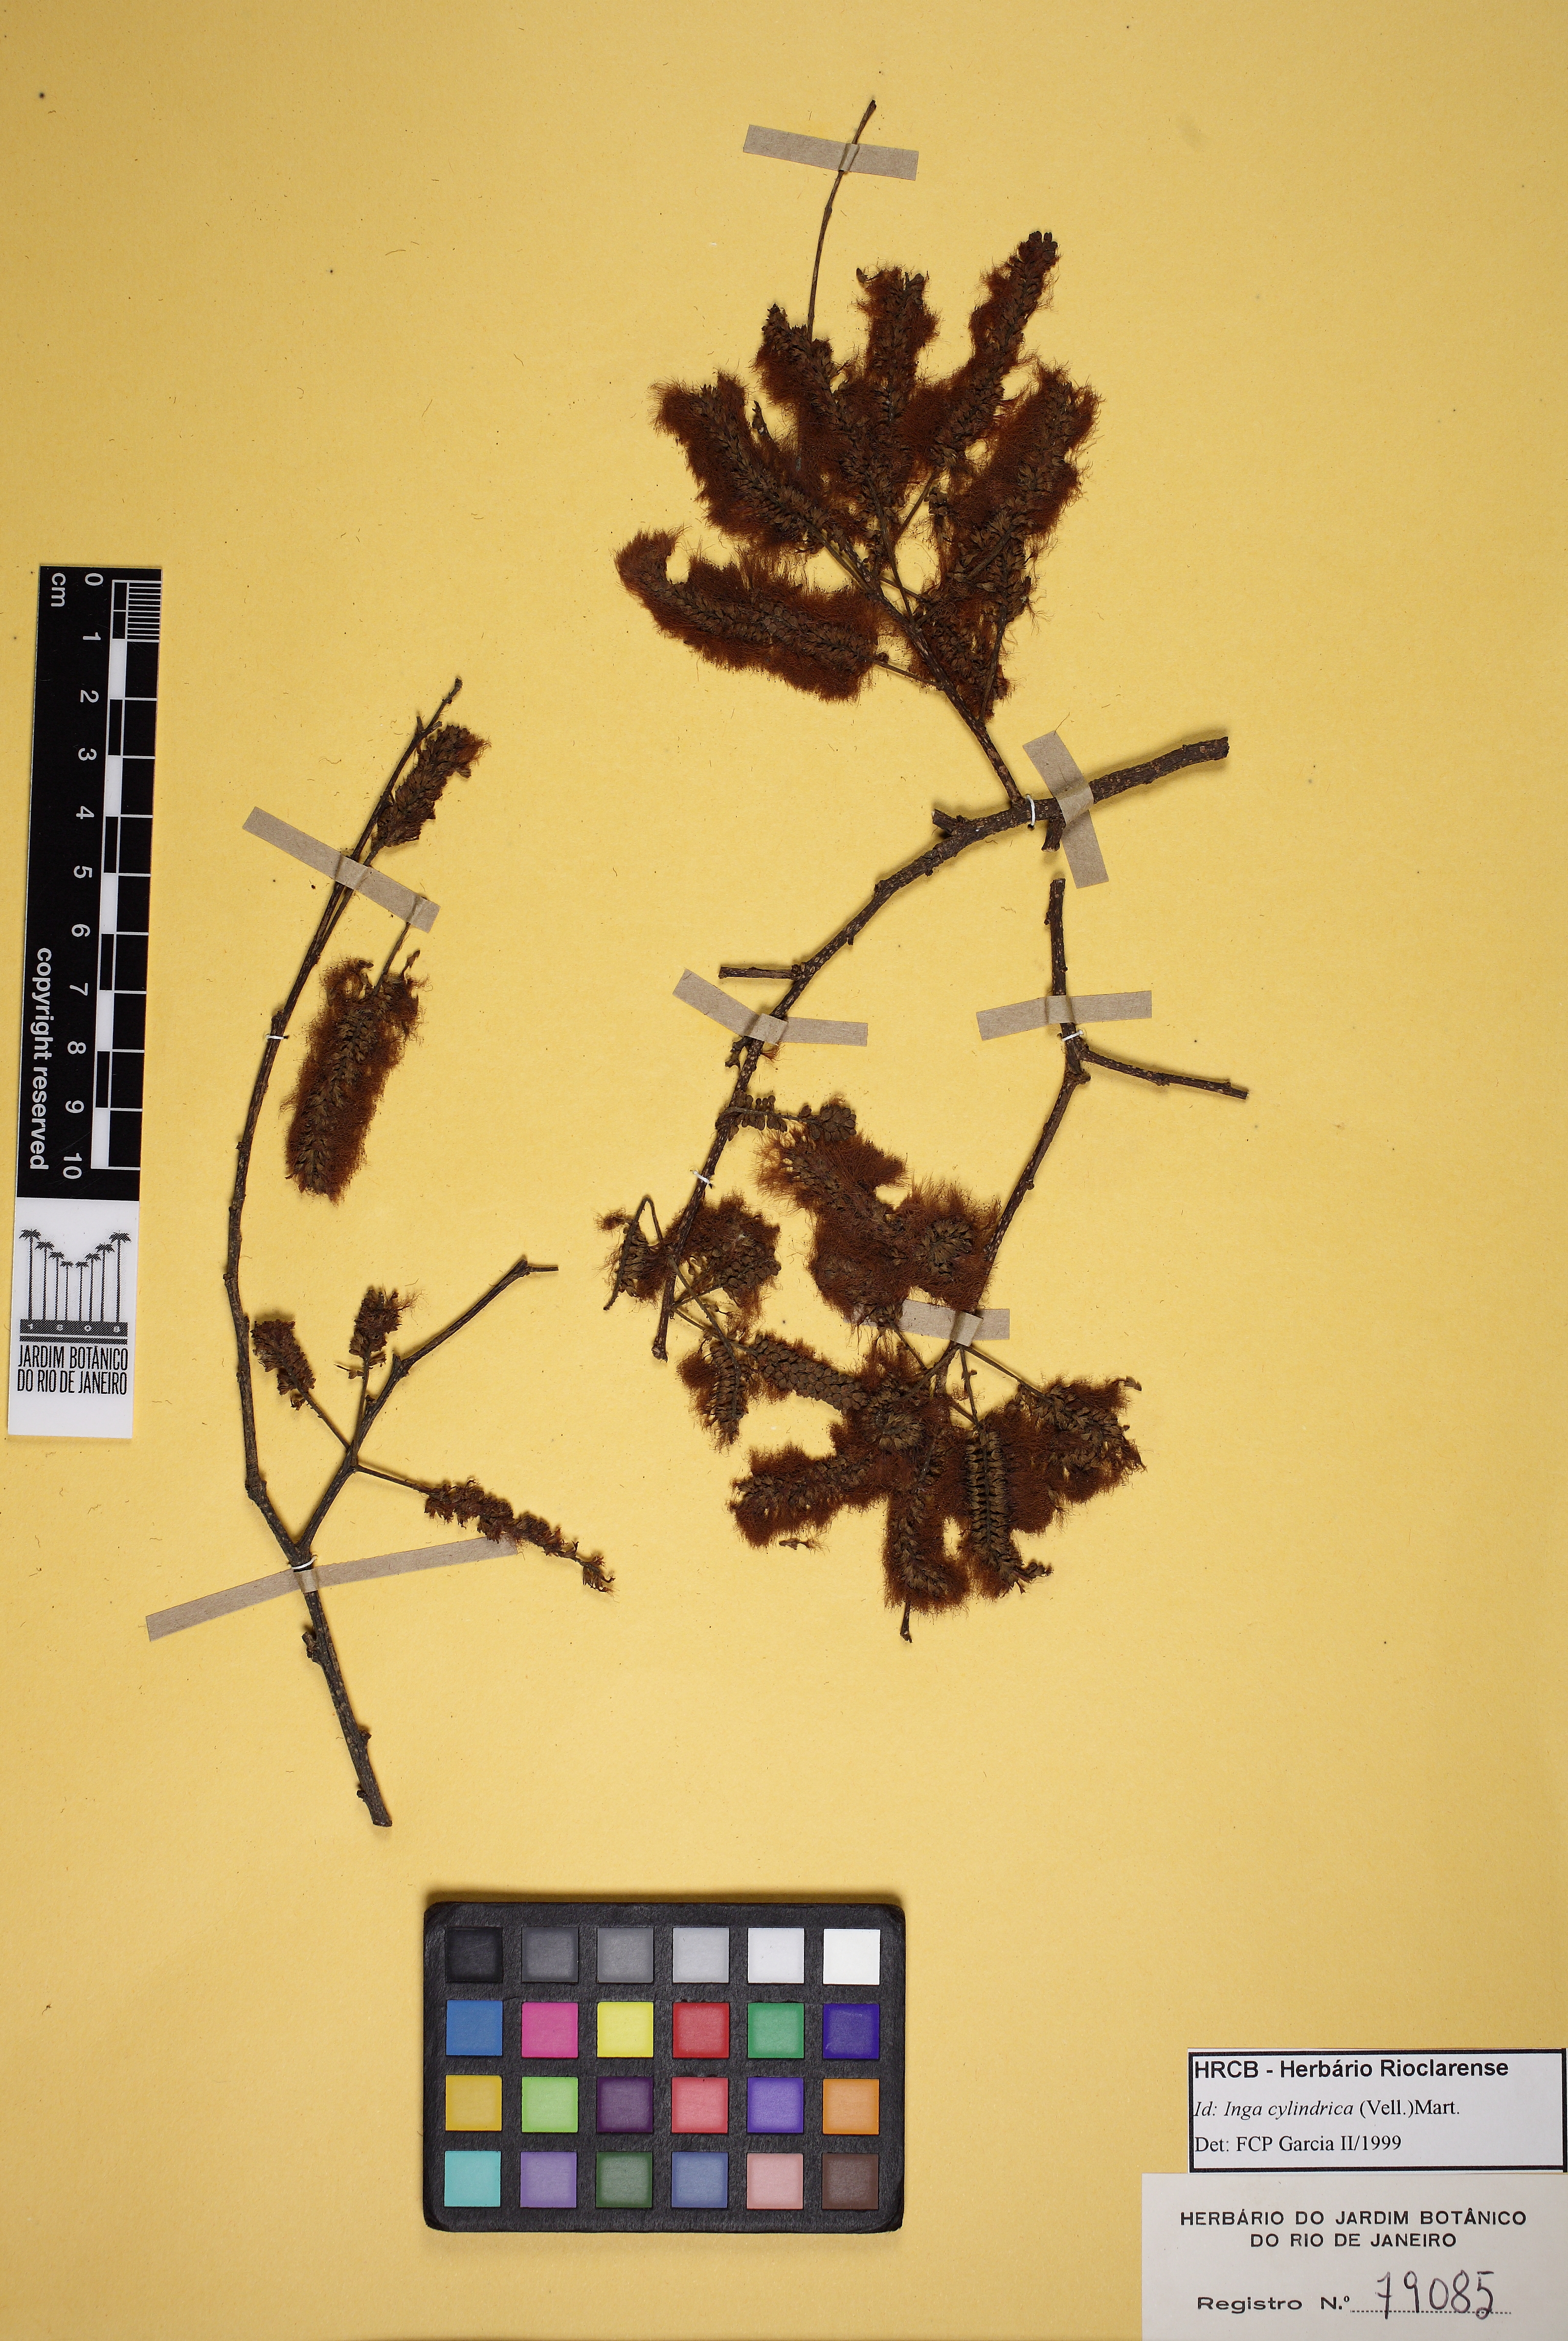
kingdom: Plantae
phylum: Tracheophyta
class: Magnoliopsida
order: Fabales
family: Fabaceae
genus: Inga
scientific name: Inga cylindrica
